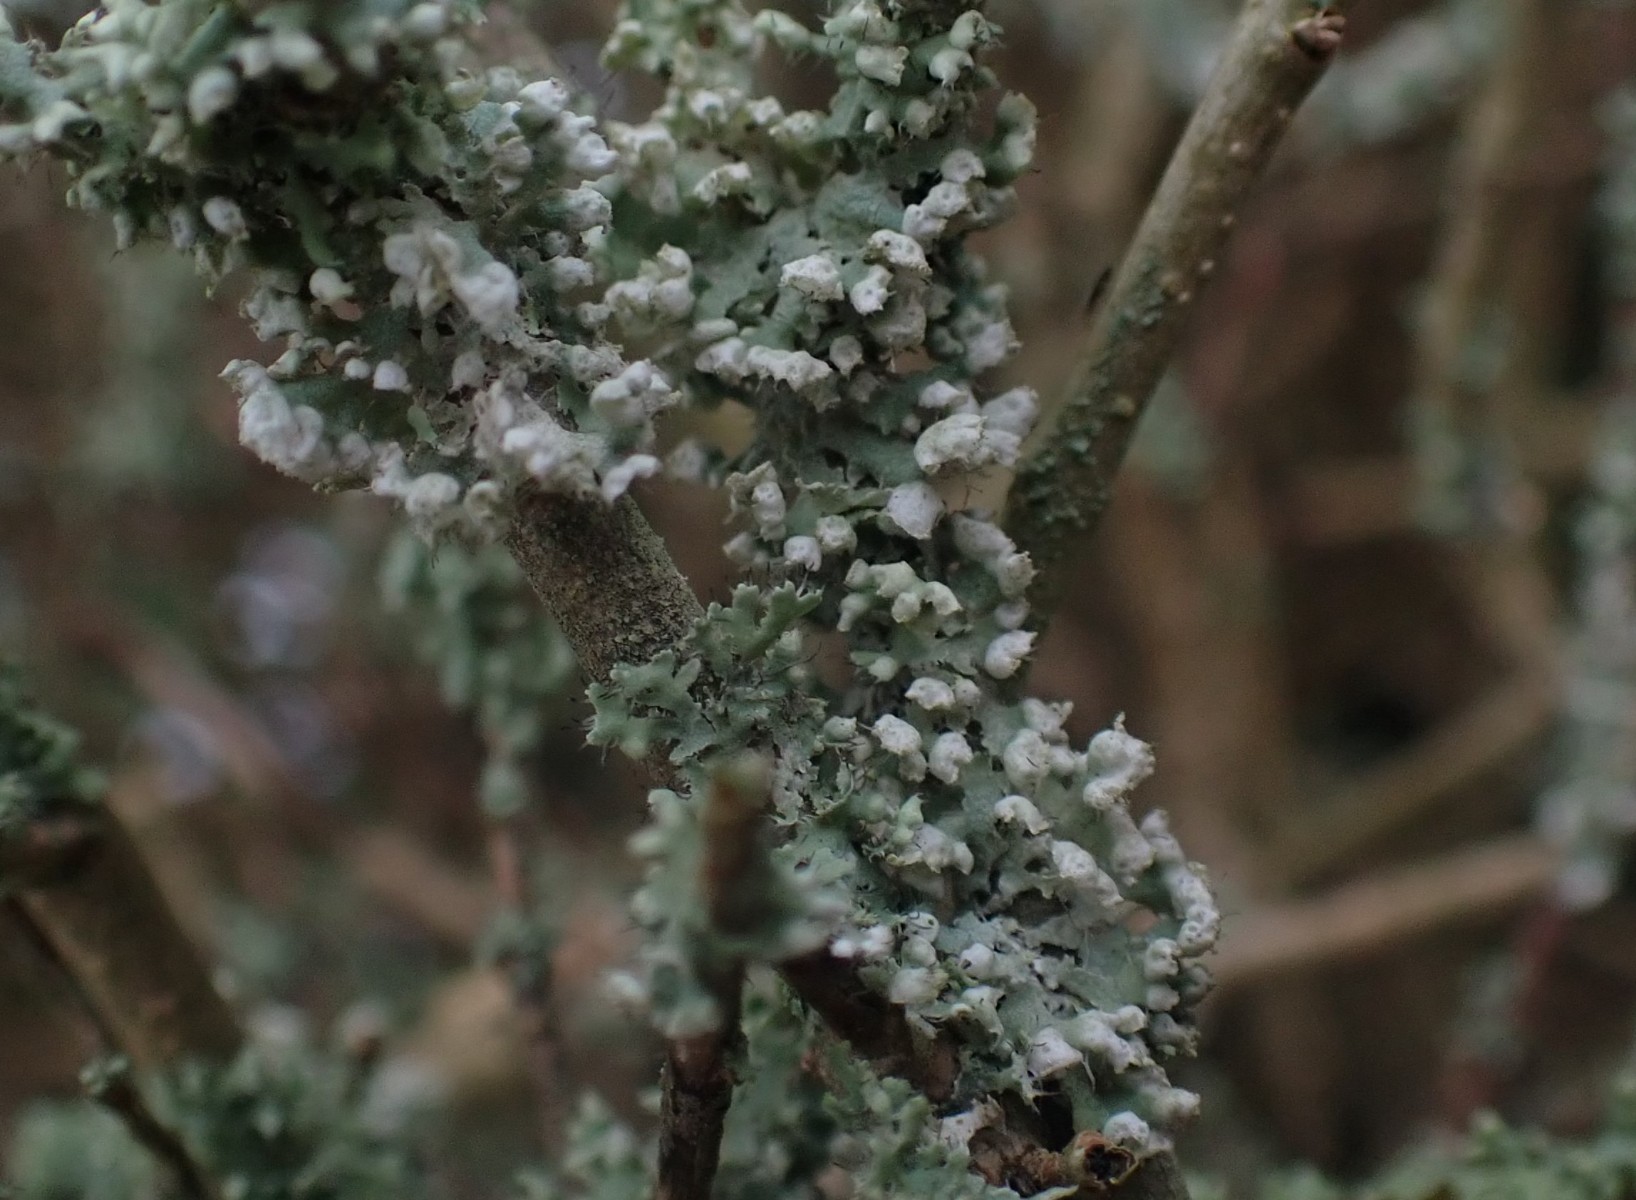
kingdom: Fungi
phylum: Ascomycota
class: Lecanoromycetes
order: Caliciales
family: Physciaceae
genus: Physcia
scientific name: Physcia adscendens
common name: hætte-rosetlav
